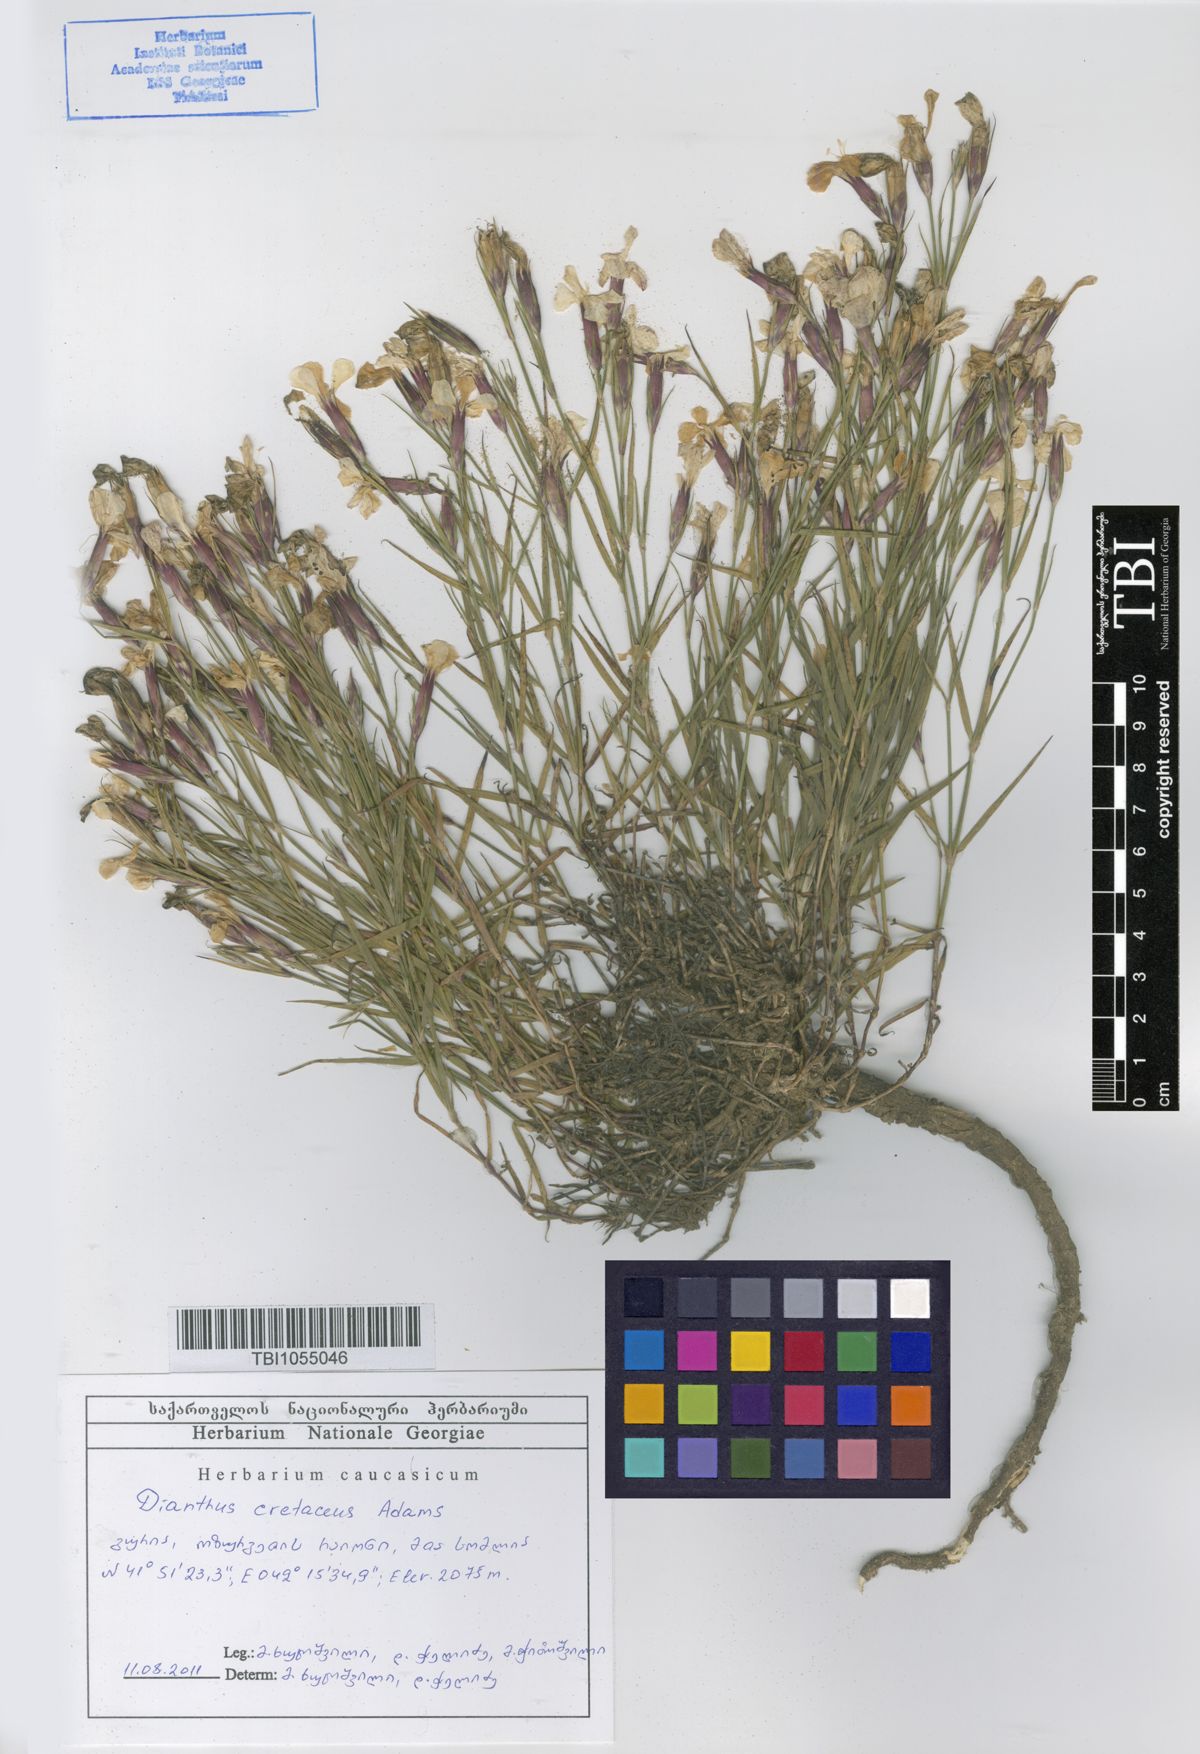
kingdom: Plantae
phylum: Tracheophyta
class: Magnoliopsida
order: Caryophyllales
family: Caryophyllaceae
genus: Dianthus
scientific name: Dianthus cretaceus
